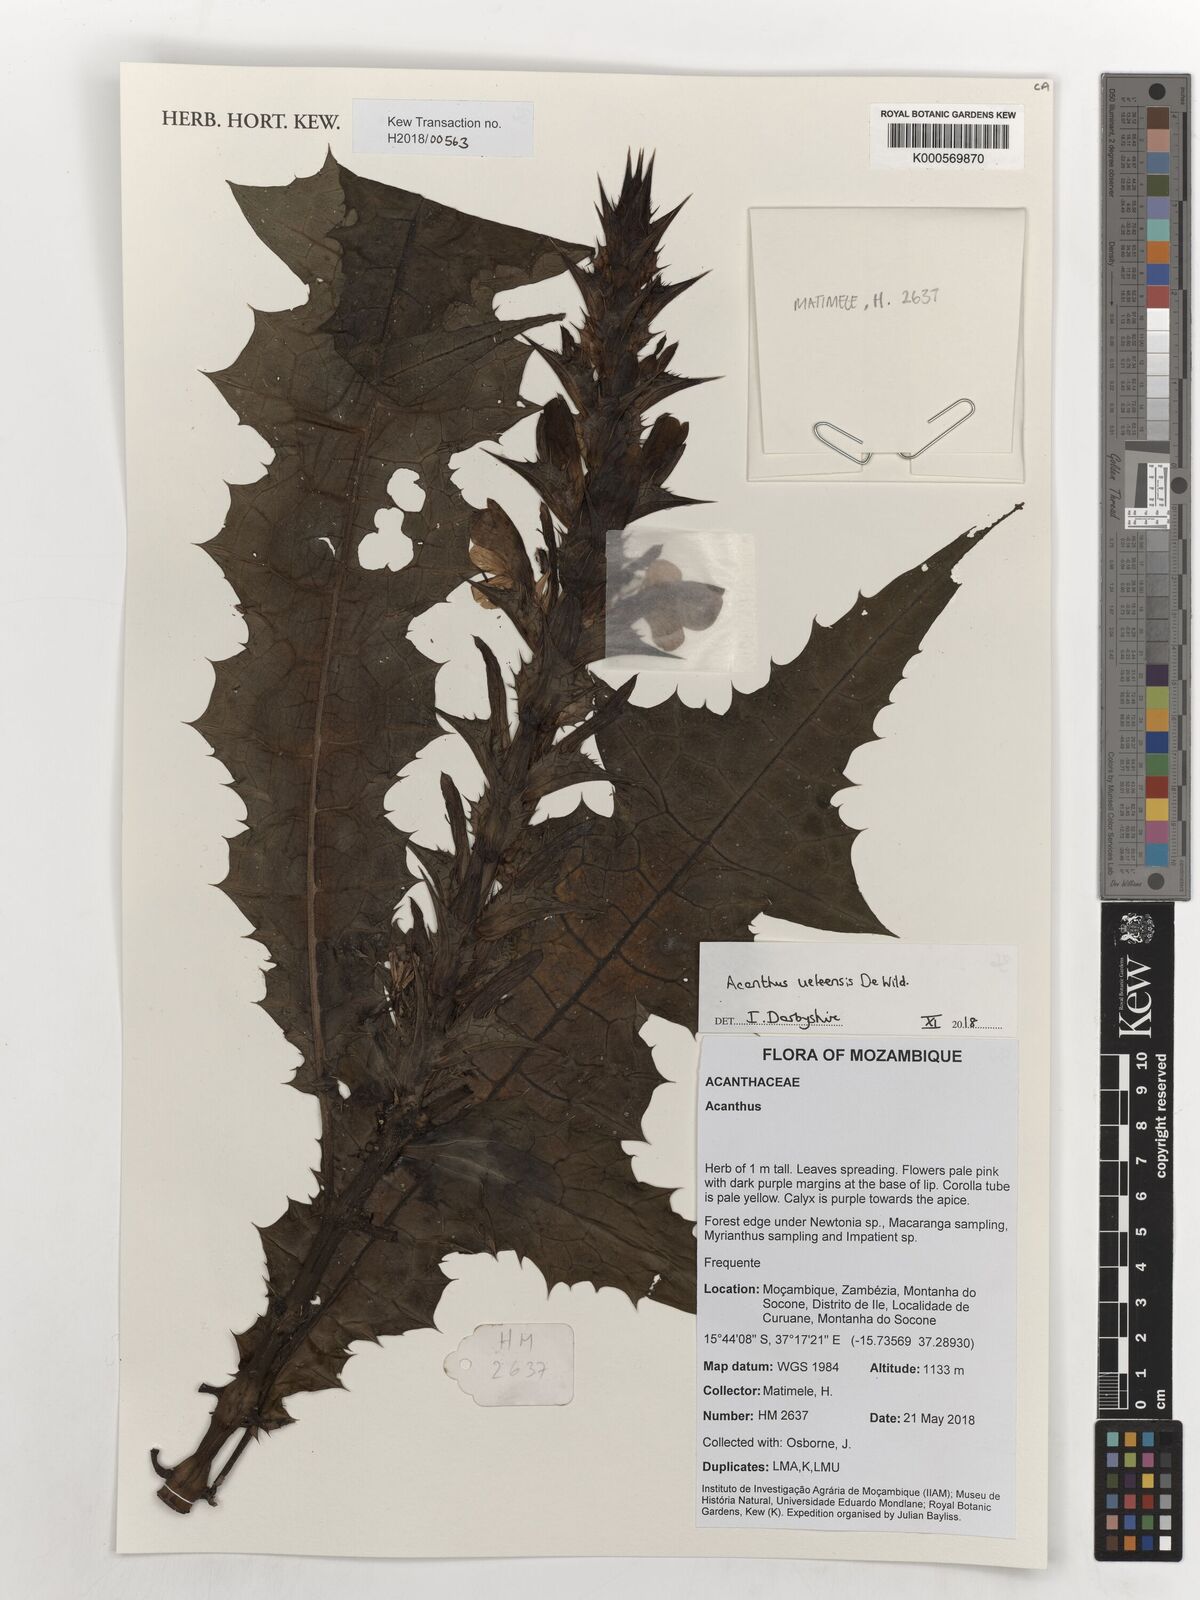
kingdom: Plantae
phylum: Tracheophyta
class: Magnoliopsida
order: Lamiales
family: Acanthaceae
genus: Acanthus
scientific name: Acanthus ueleensis
